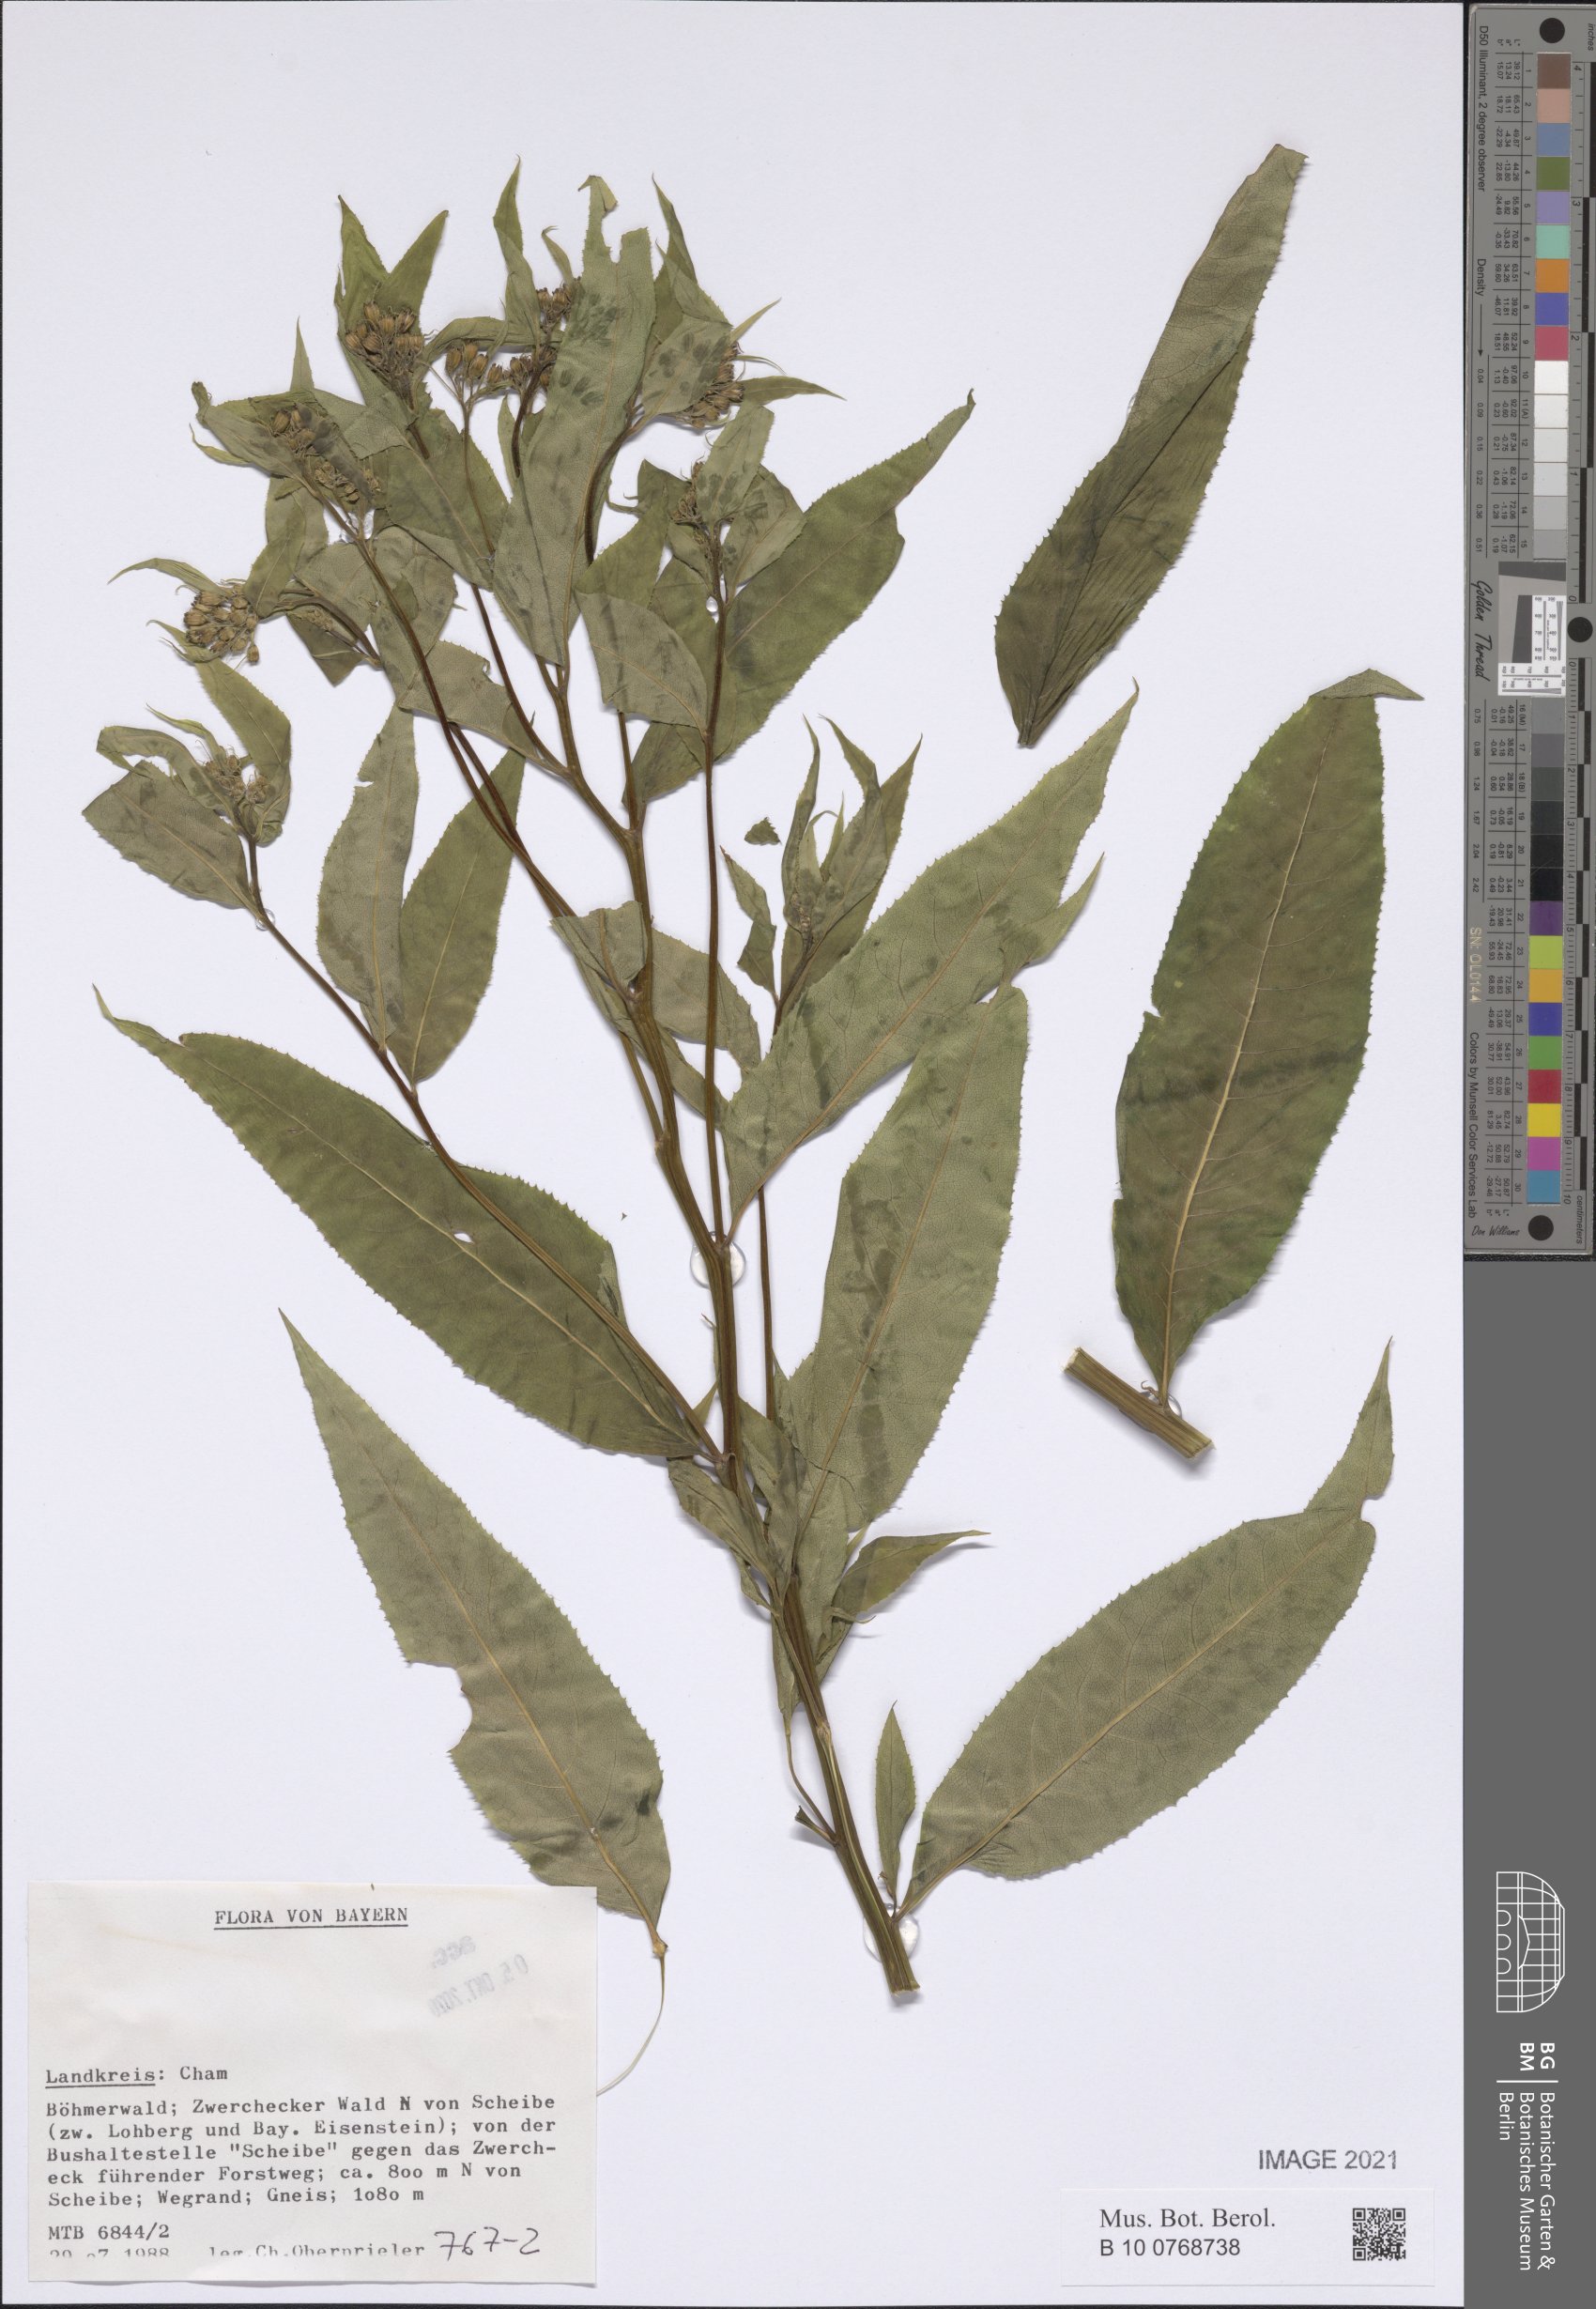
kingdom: Plantae
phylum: Tracheophyta
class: Magnoliopsida
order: Asterales
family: Asteraceae
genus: Senecio
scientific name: Senecio
